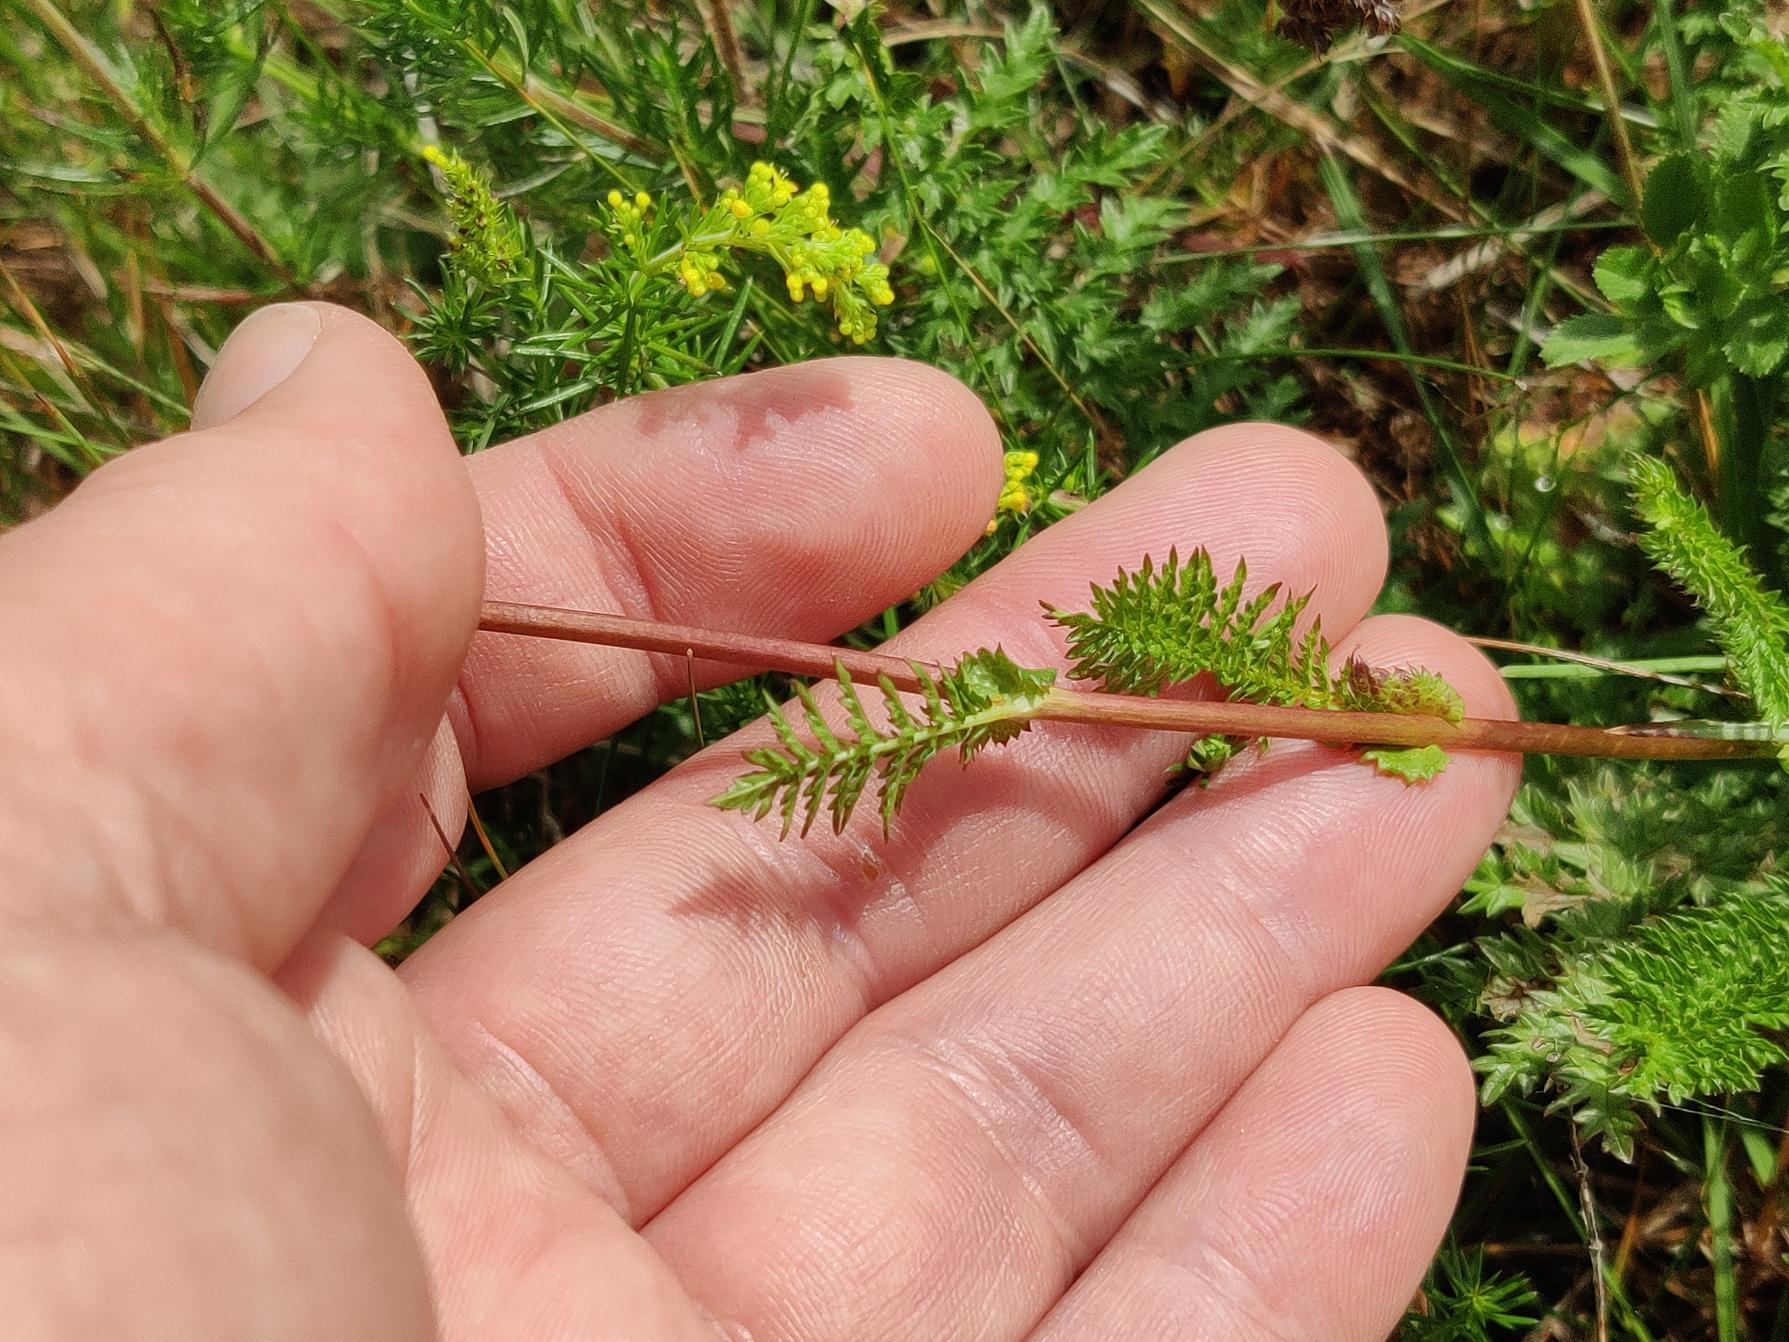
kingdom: Plantae
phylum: Tracheophyta
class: Magnoliopsida
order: Rosales
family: Rosaceae
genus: Filipendula
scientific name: Filipendula vulgaris
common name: Knoldet mjødurt
